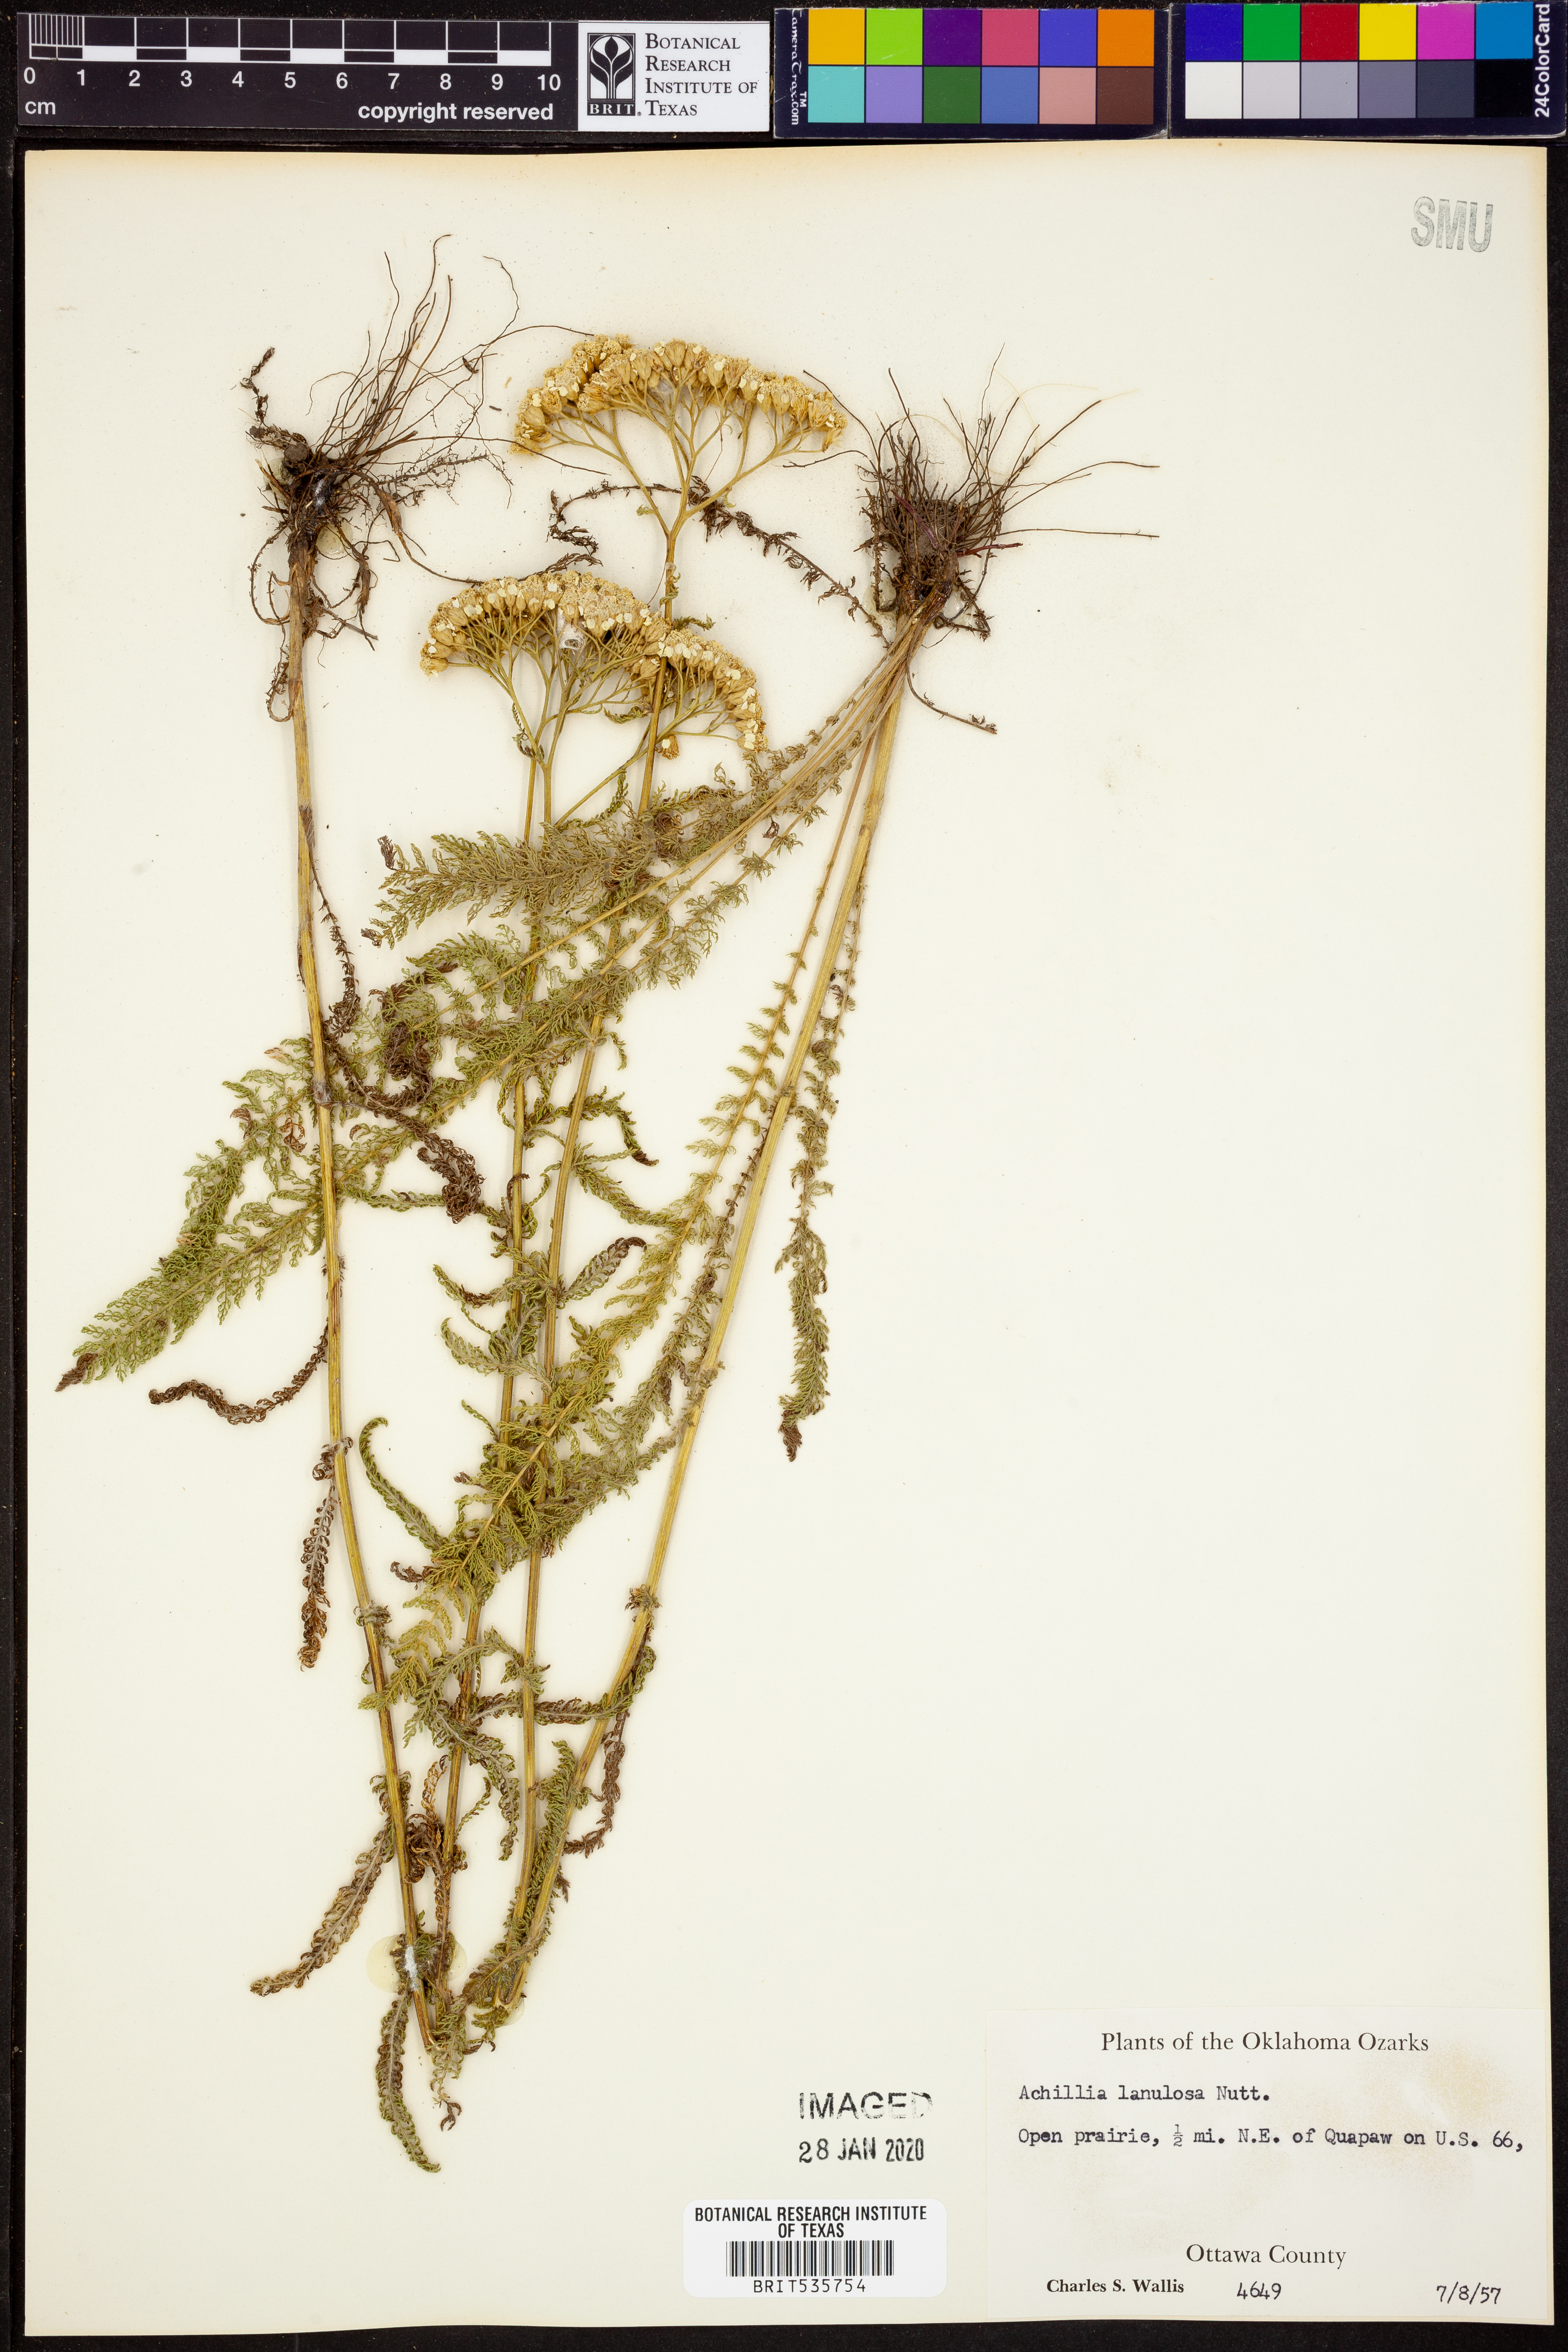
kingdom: Plantae
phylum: Tracheophyta
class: Magnoliopsida
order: Asterales
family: Asteraceae
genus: Achillea
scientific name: Achillea millefolium
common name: Yarrow
